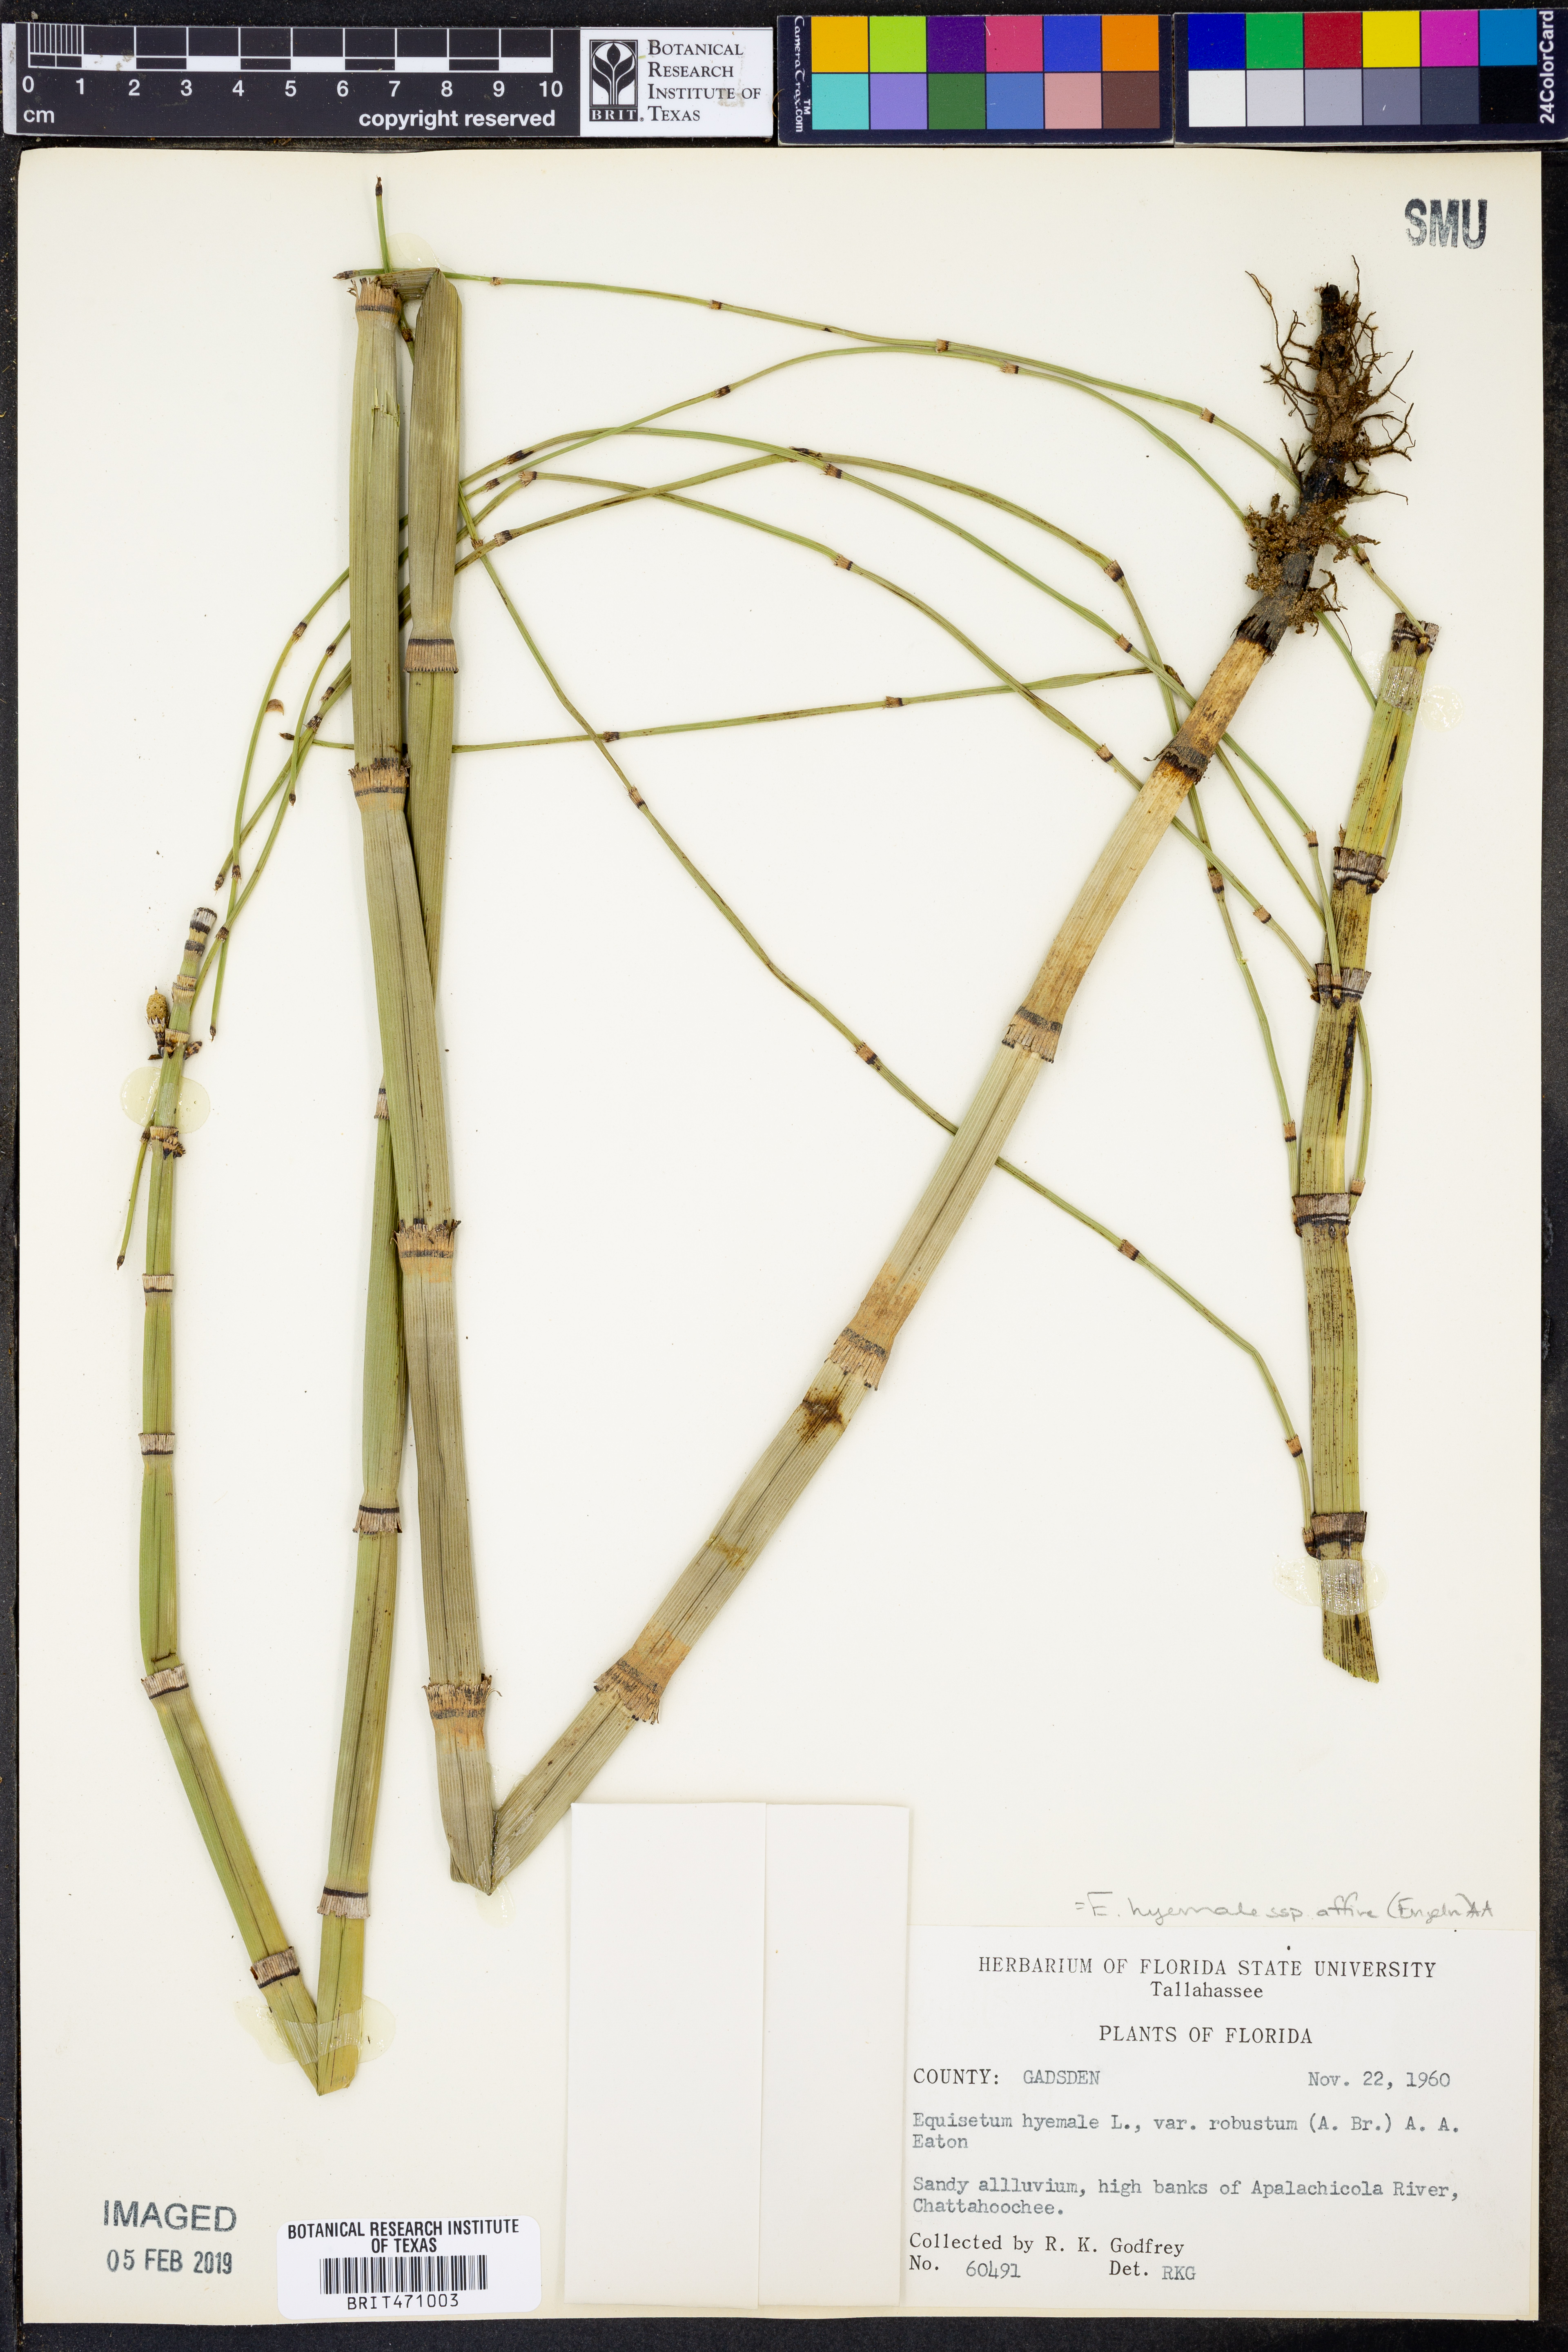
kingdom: Plantae
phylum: Tracheophyta
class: Polypodiopsida
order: Equisetales
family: Equisetaceae
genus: Equisetum
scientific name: Equisetum praealtum
